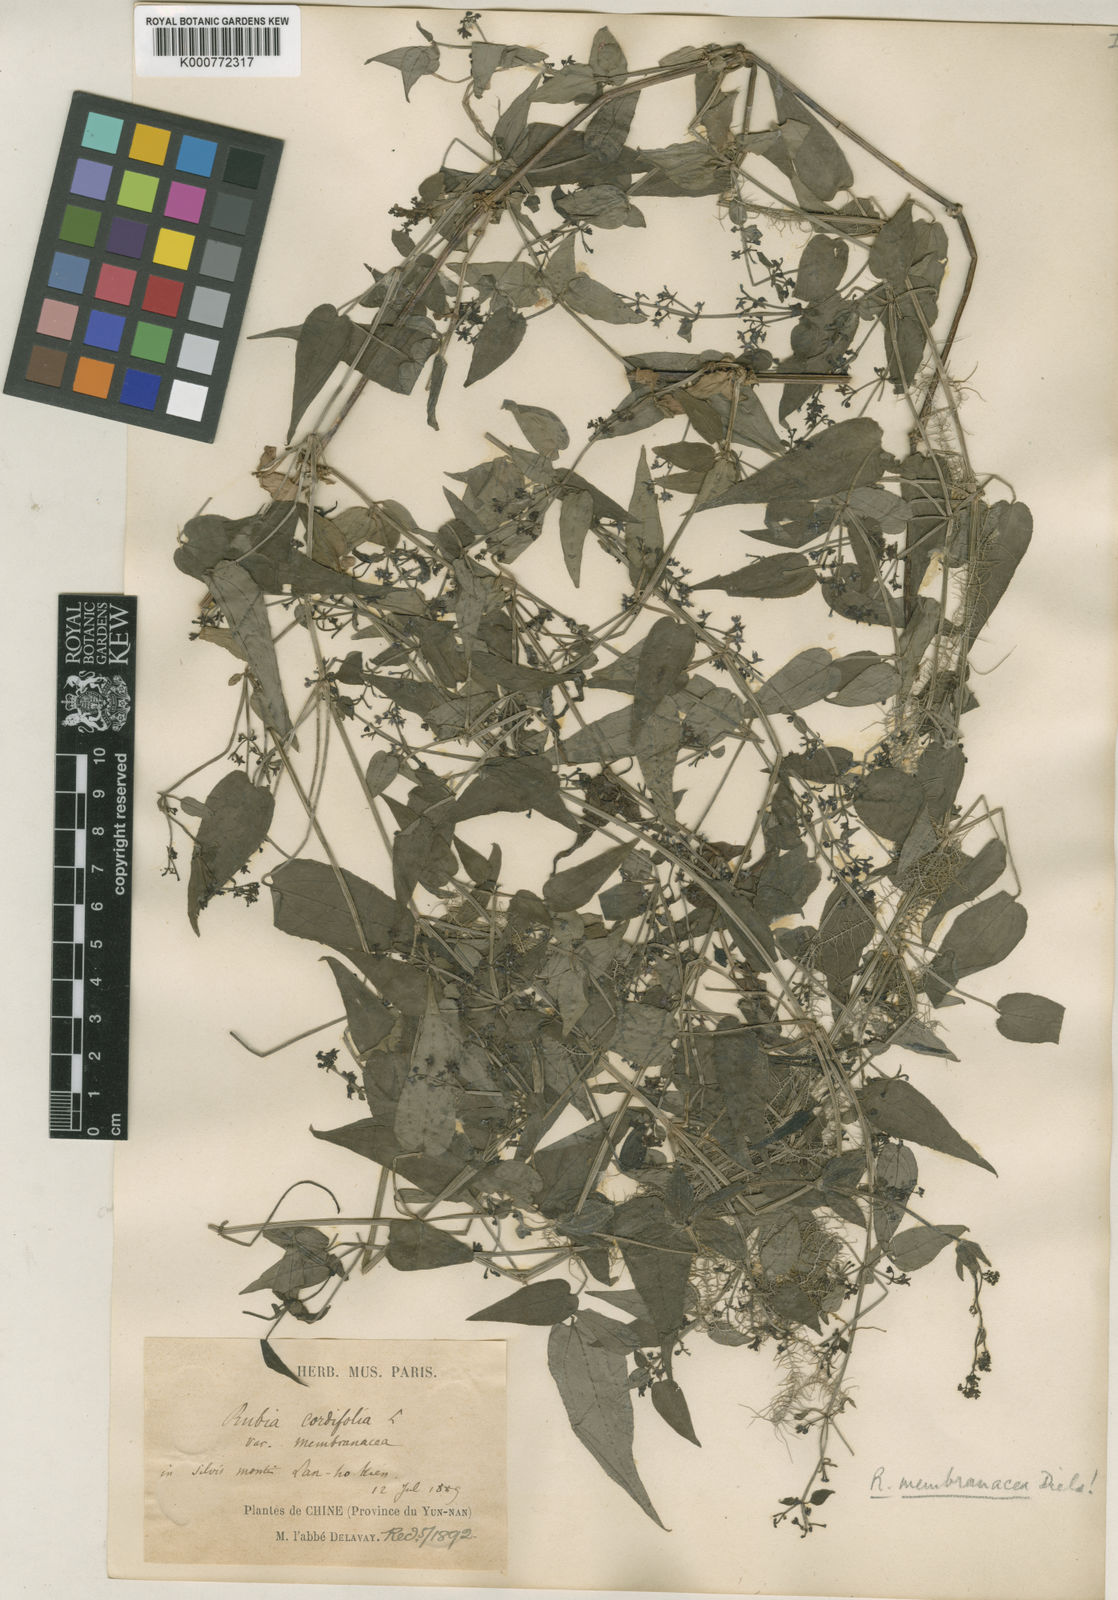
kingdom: Plantae
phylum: Tracheophyta
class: Magnoliopsida
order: Gentianales
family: Rubiaceae
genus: Rubia
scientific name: Rubia cordifolia
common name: Indian madder
